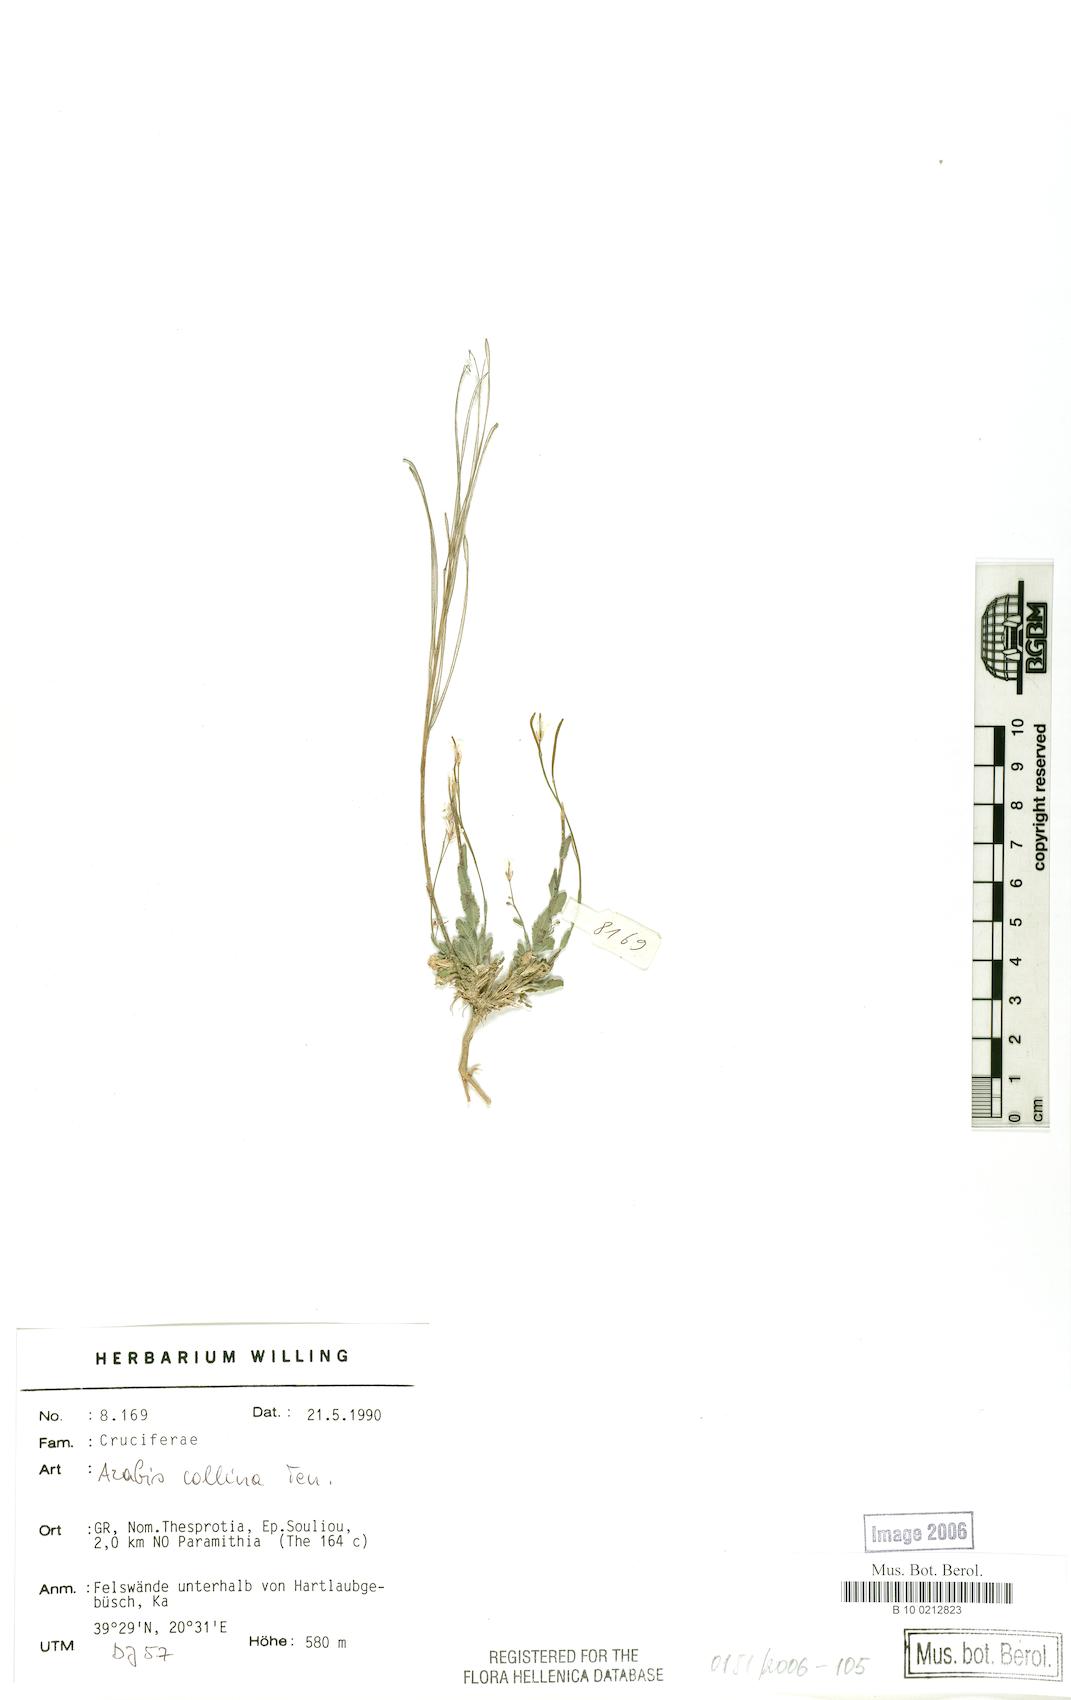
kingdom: Plantae
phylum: Tracheophyta
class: Magnoliopsida
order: Brassicales
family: Brassicaceae
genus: Arabis
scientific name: Arabis collina
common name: Rosy cress
